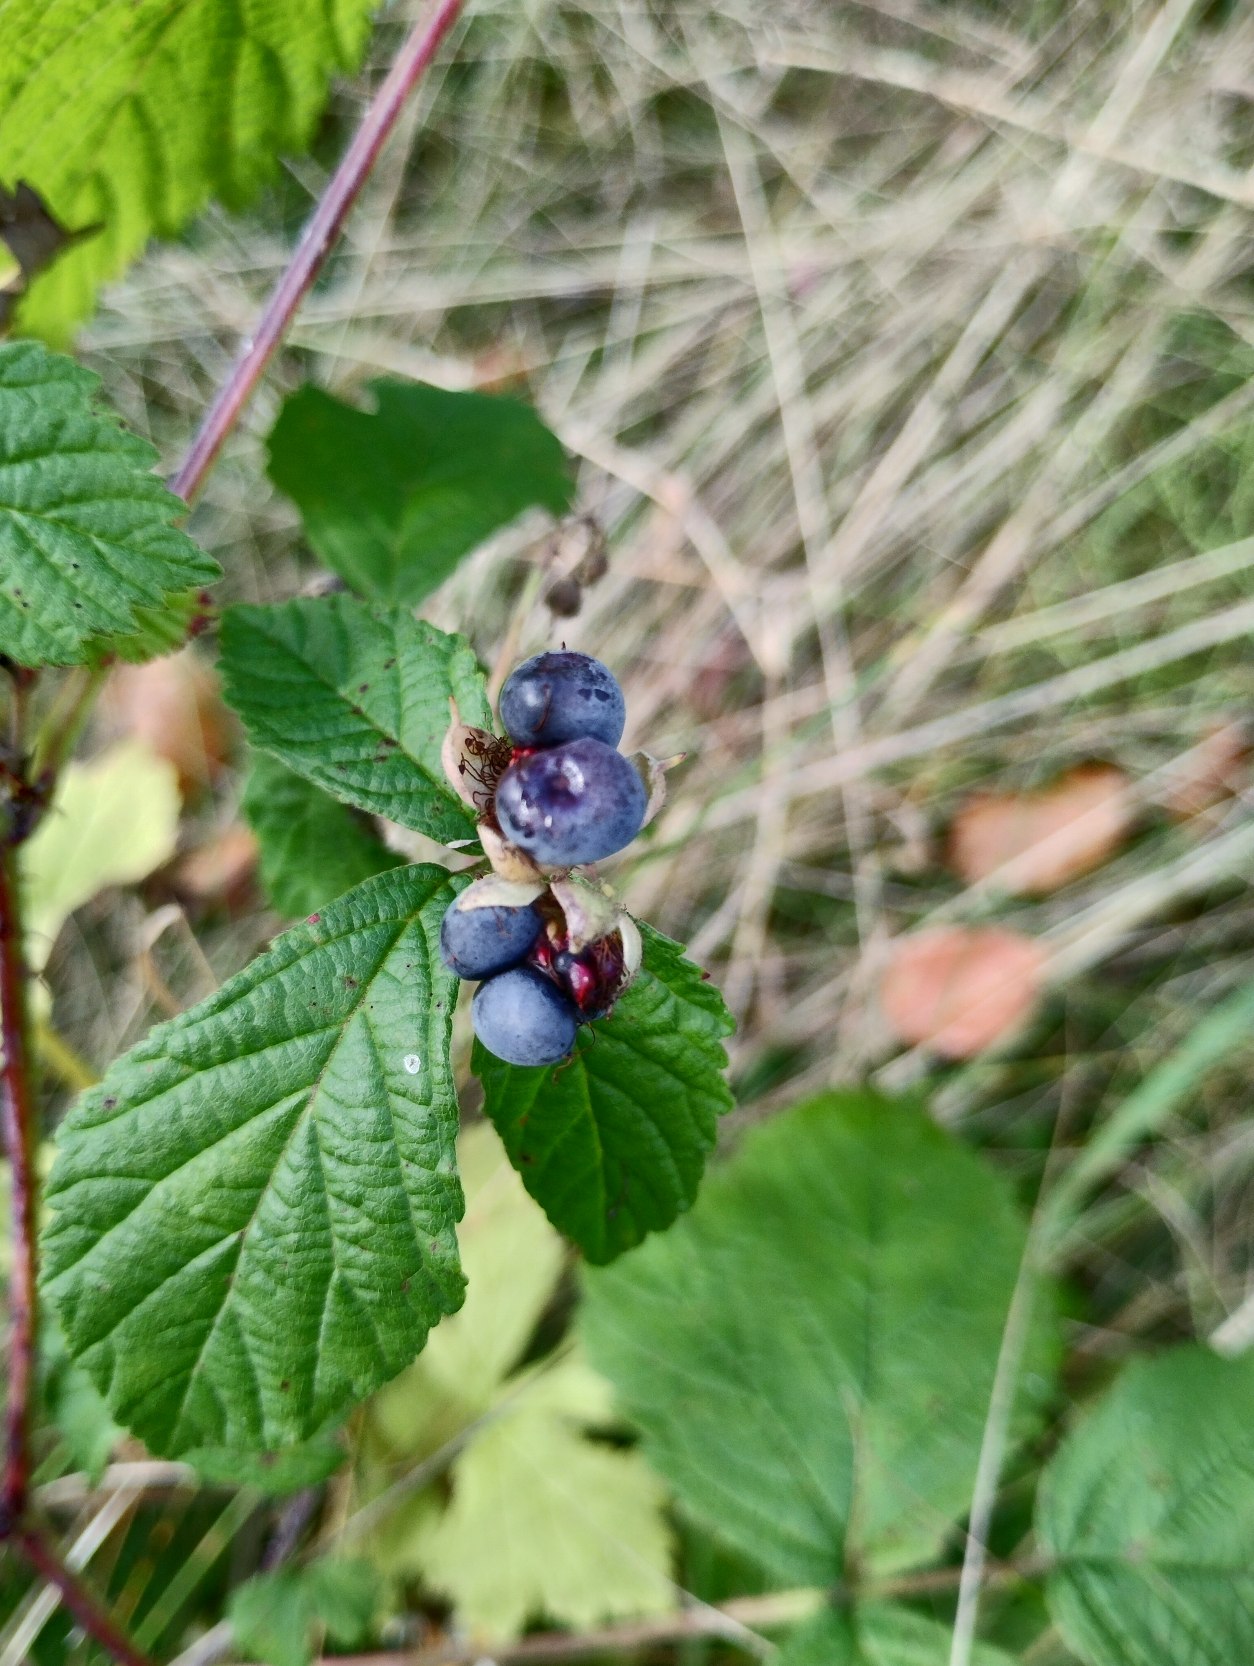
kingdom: Plantae
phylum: Tracheophyta
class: Magnoliopsida
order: Rosales
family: Rosaceae
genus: Rubus
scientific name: Rubus caesius
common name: Korbær
